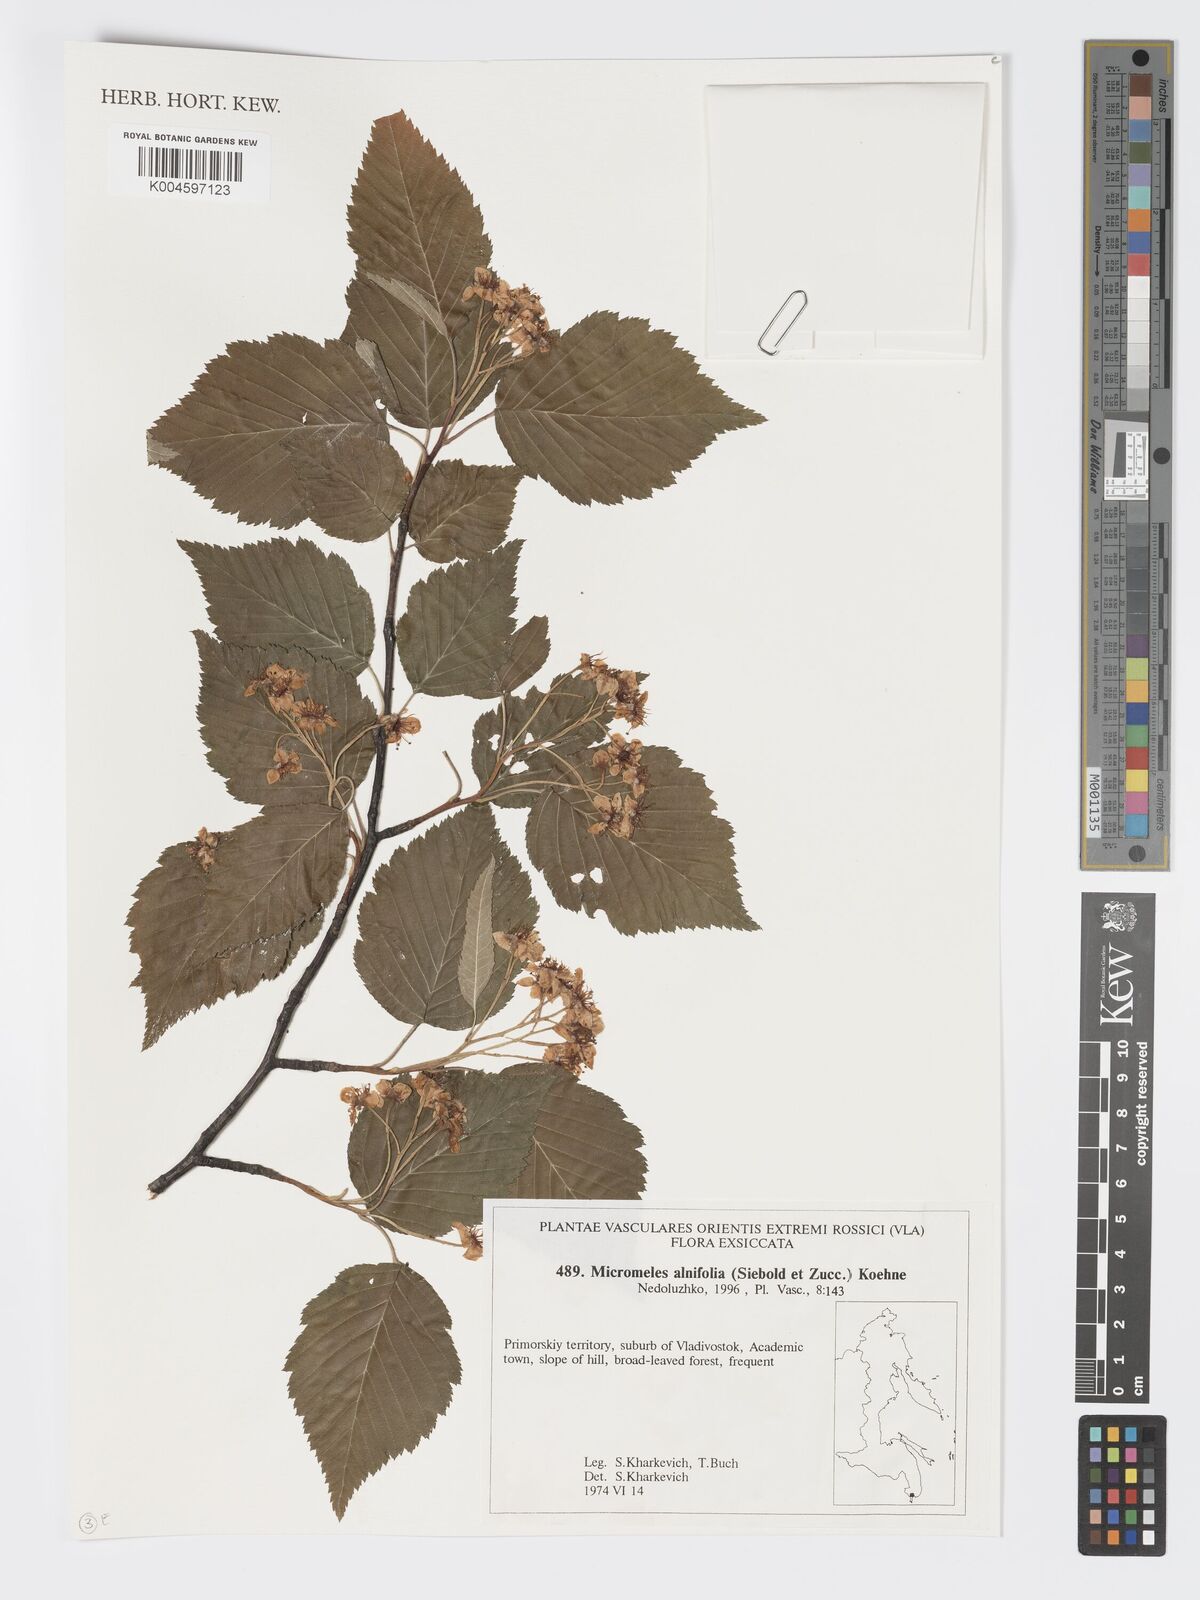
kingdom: Plantae
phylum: Tracheophyta
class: Magnoliopsida
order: Rosales
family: Rosaceae
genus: Sorbus
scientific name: Sorbus alnifolia
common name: Mountain-ash
